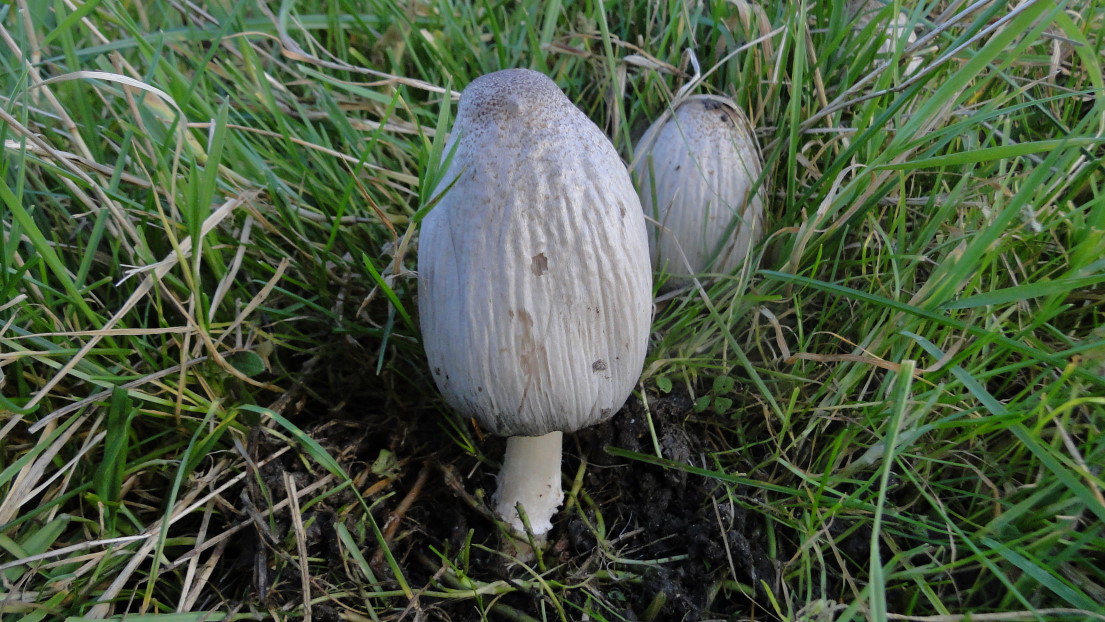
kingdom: Fungi
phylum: Basidiomycota
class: Agaricomycetes
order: Agaricales
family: Psathyrellaceae
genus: Coprinopsis
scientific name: Coprinopsis atramentaria
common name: almindelig blækhat
